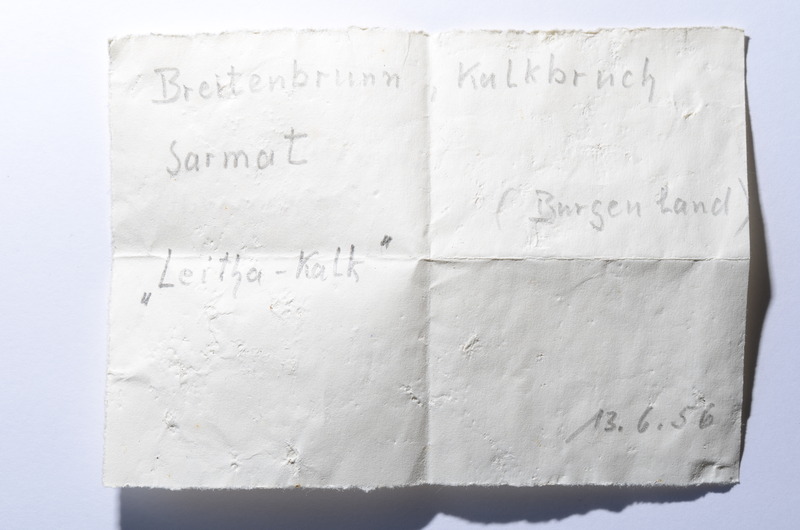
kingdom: Animalia
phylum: Chordata
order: Perciformes
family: Sparidae
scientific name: Sparidae
